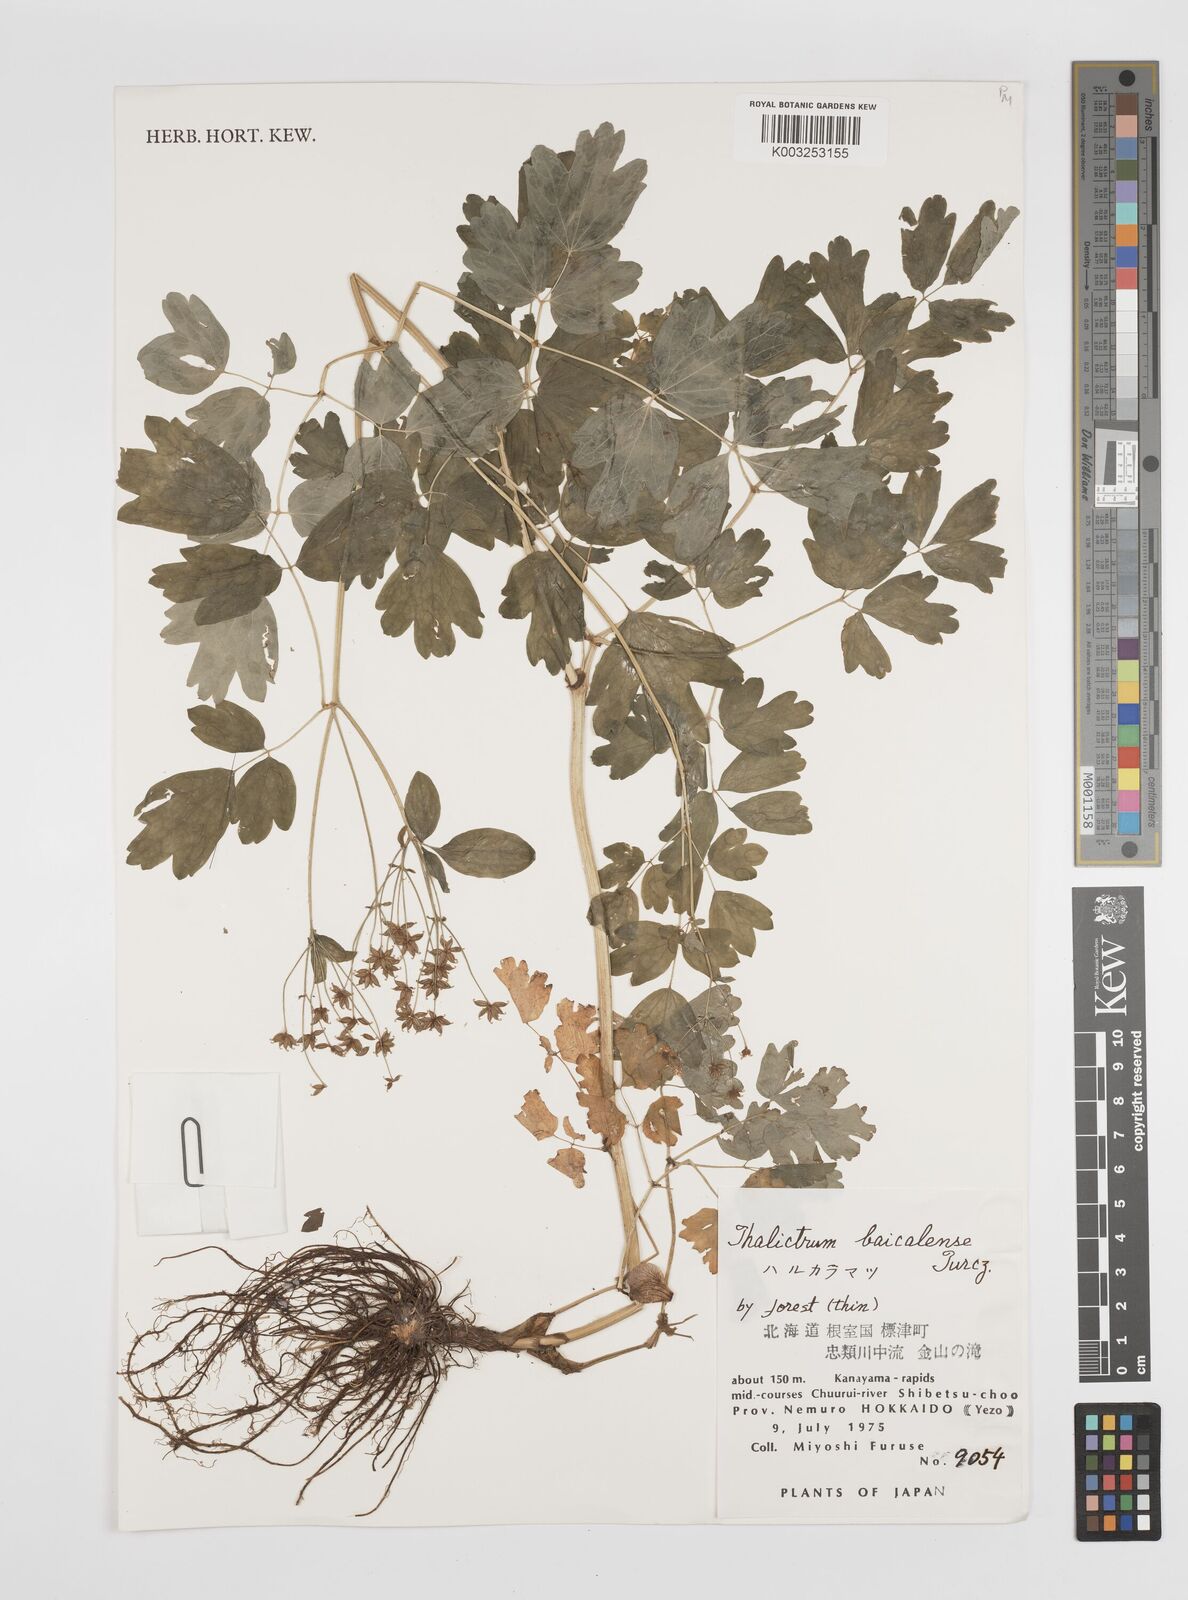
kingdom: Plantae
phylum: Tracheophyta
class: Magnoliopsida
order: Ranunculales
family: Ranunculaceae
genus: Thalictrum
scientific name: Thalictrum baicalense
